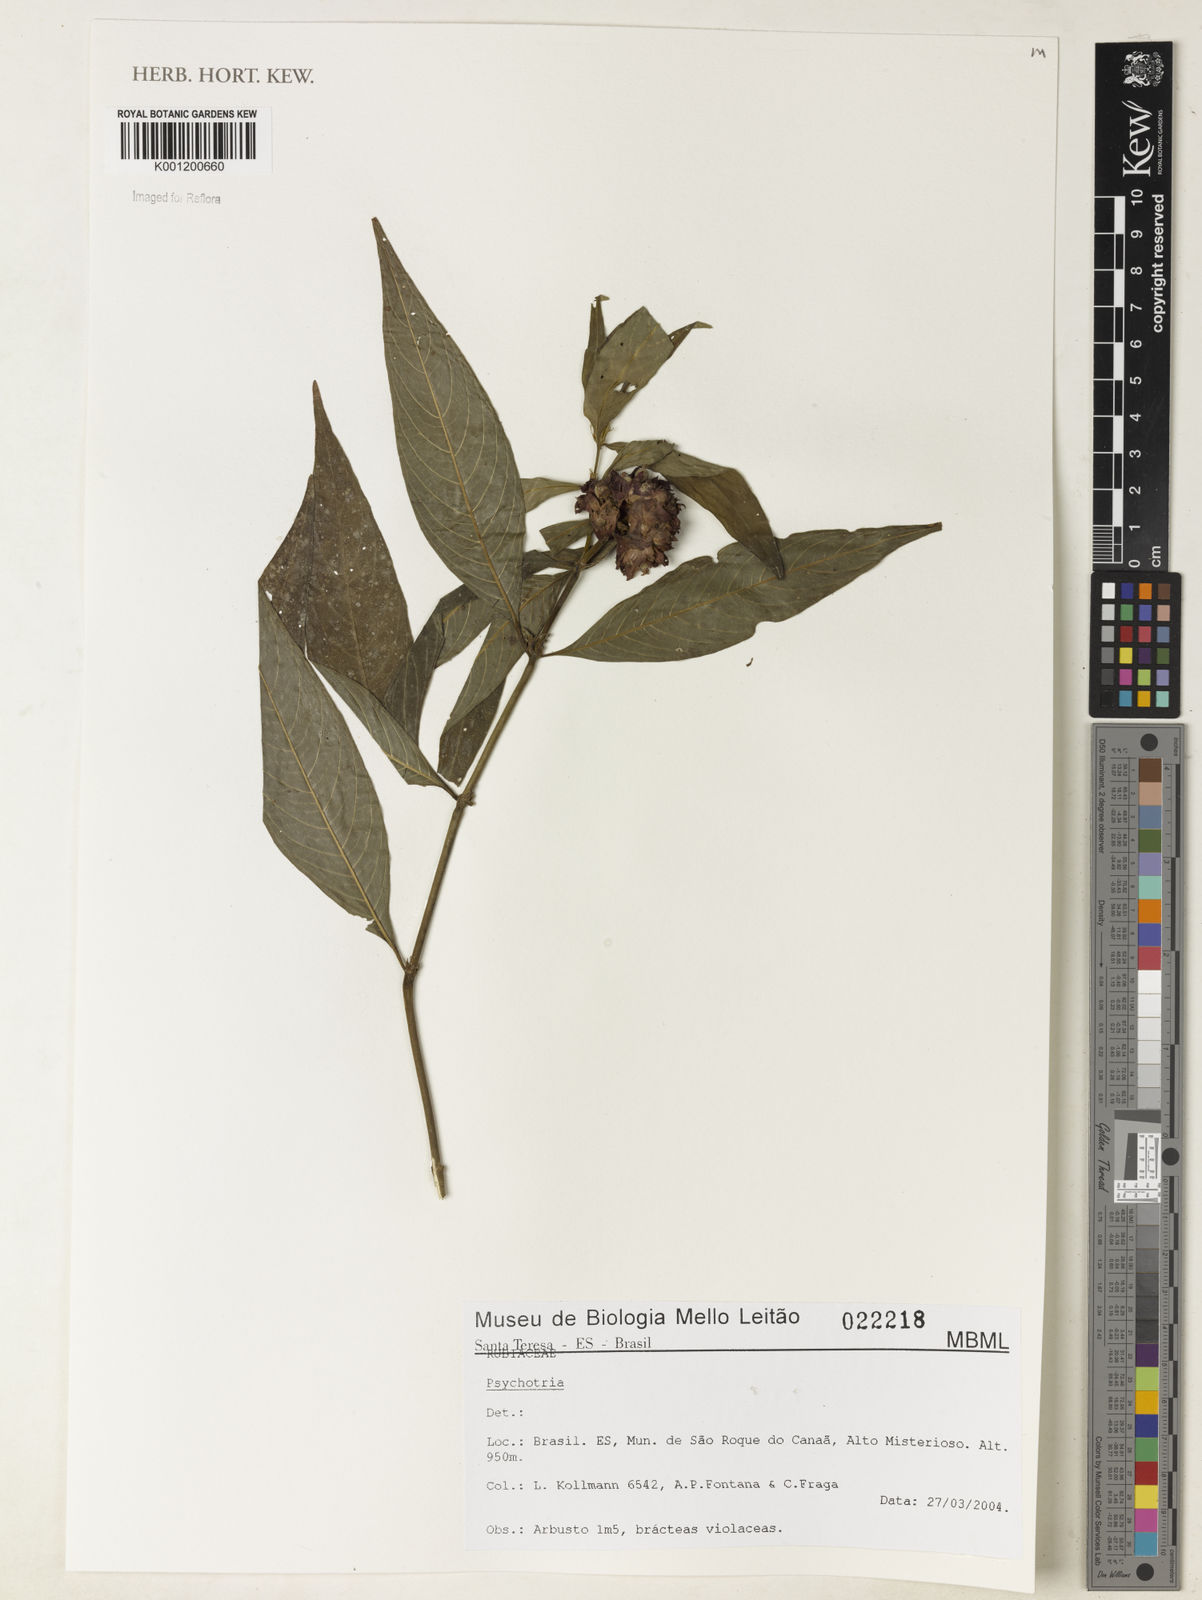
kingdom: Plantae
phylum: Tracheophyta
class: Magnoliopsida
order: Gentianales
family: Rubiaceae
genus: Psychotria
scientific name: Psychotria
